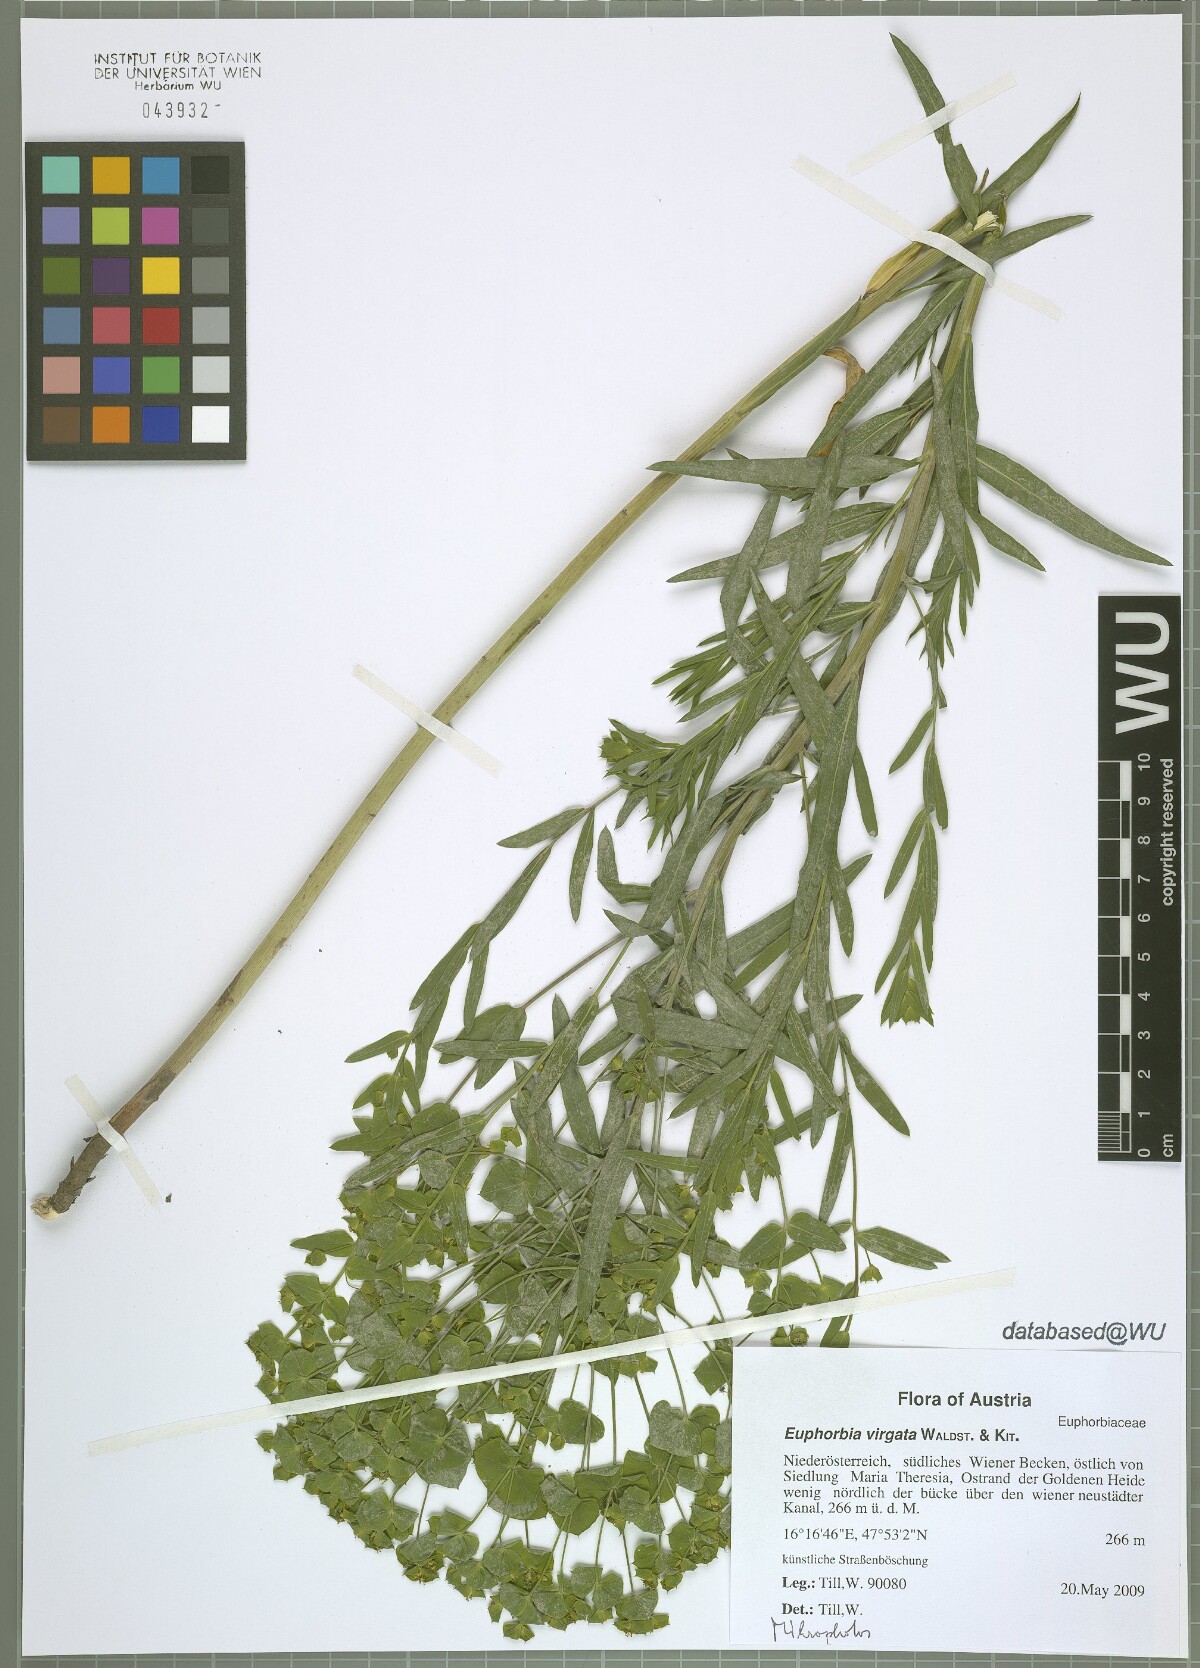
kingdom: Plantae
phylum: Tracheophyta
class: Magnoliopsida
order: Malpighiales
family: Euphorbiaceae
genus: Euphorbia
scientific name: Euphorbia virgata
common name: Leafy spurge
